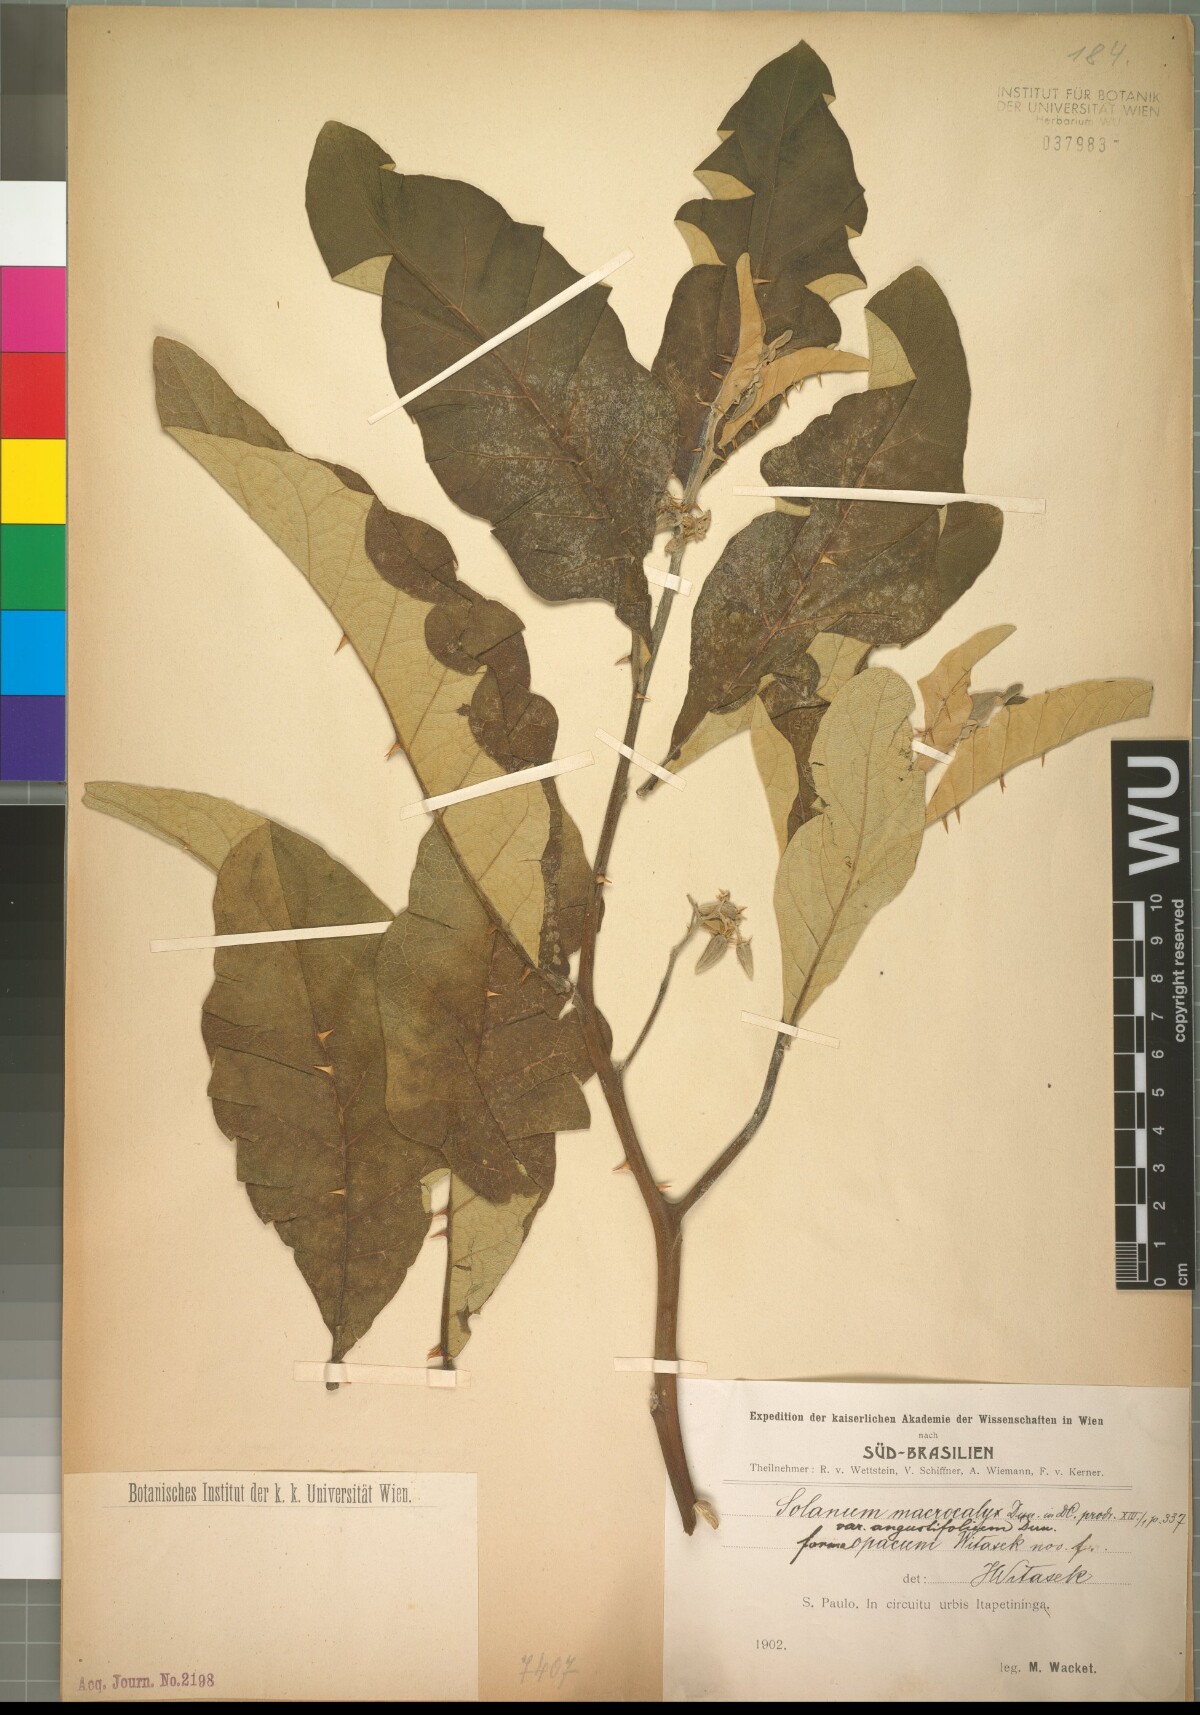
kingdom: Plantae
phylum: Tracheophyta
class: Magnoliopsida
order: Solanales
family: Solanaceae
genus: Solanum
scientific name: Solanum gomphodes
